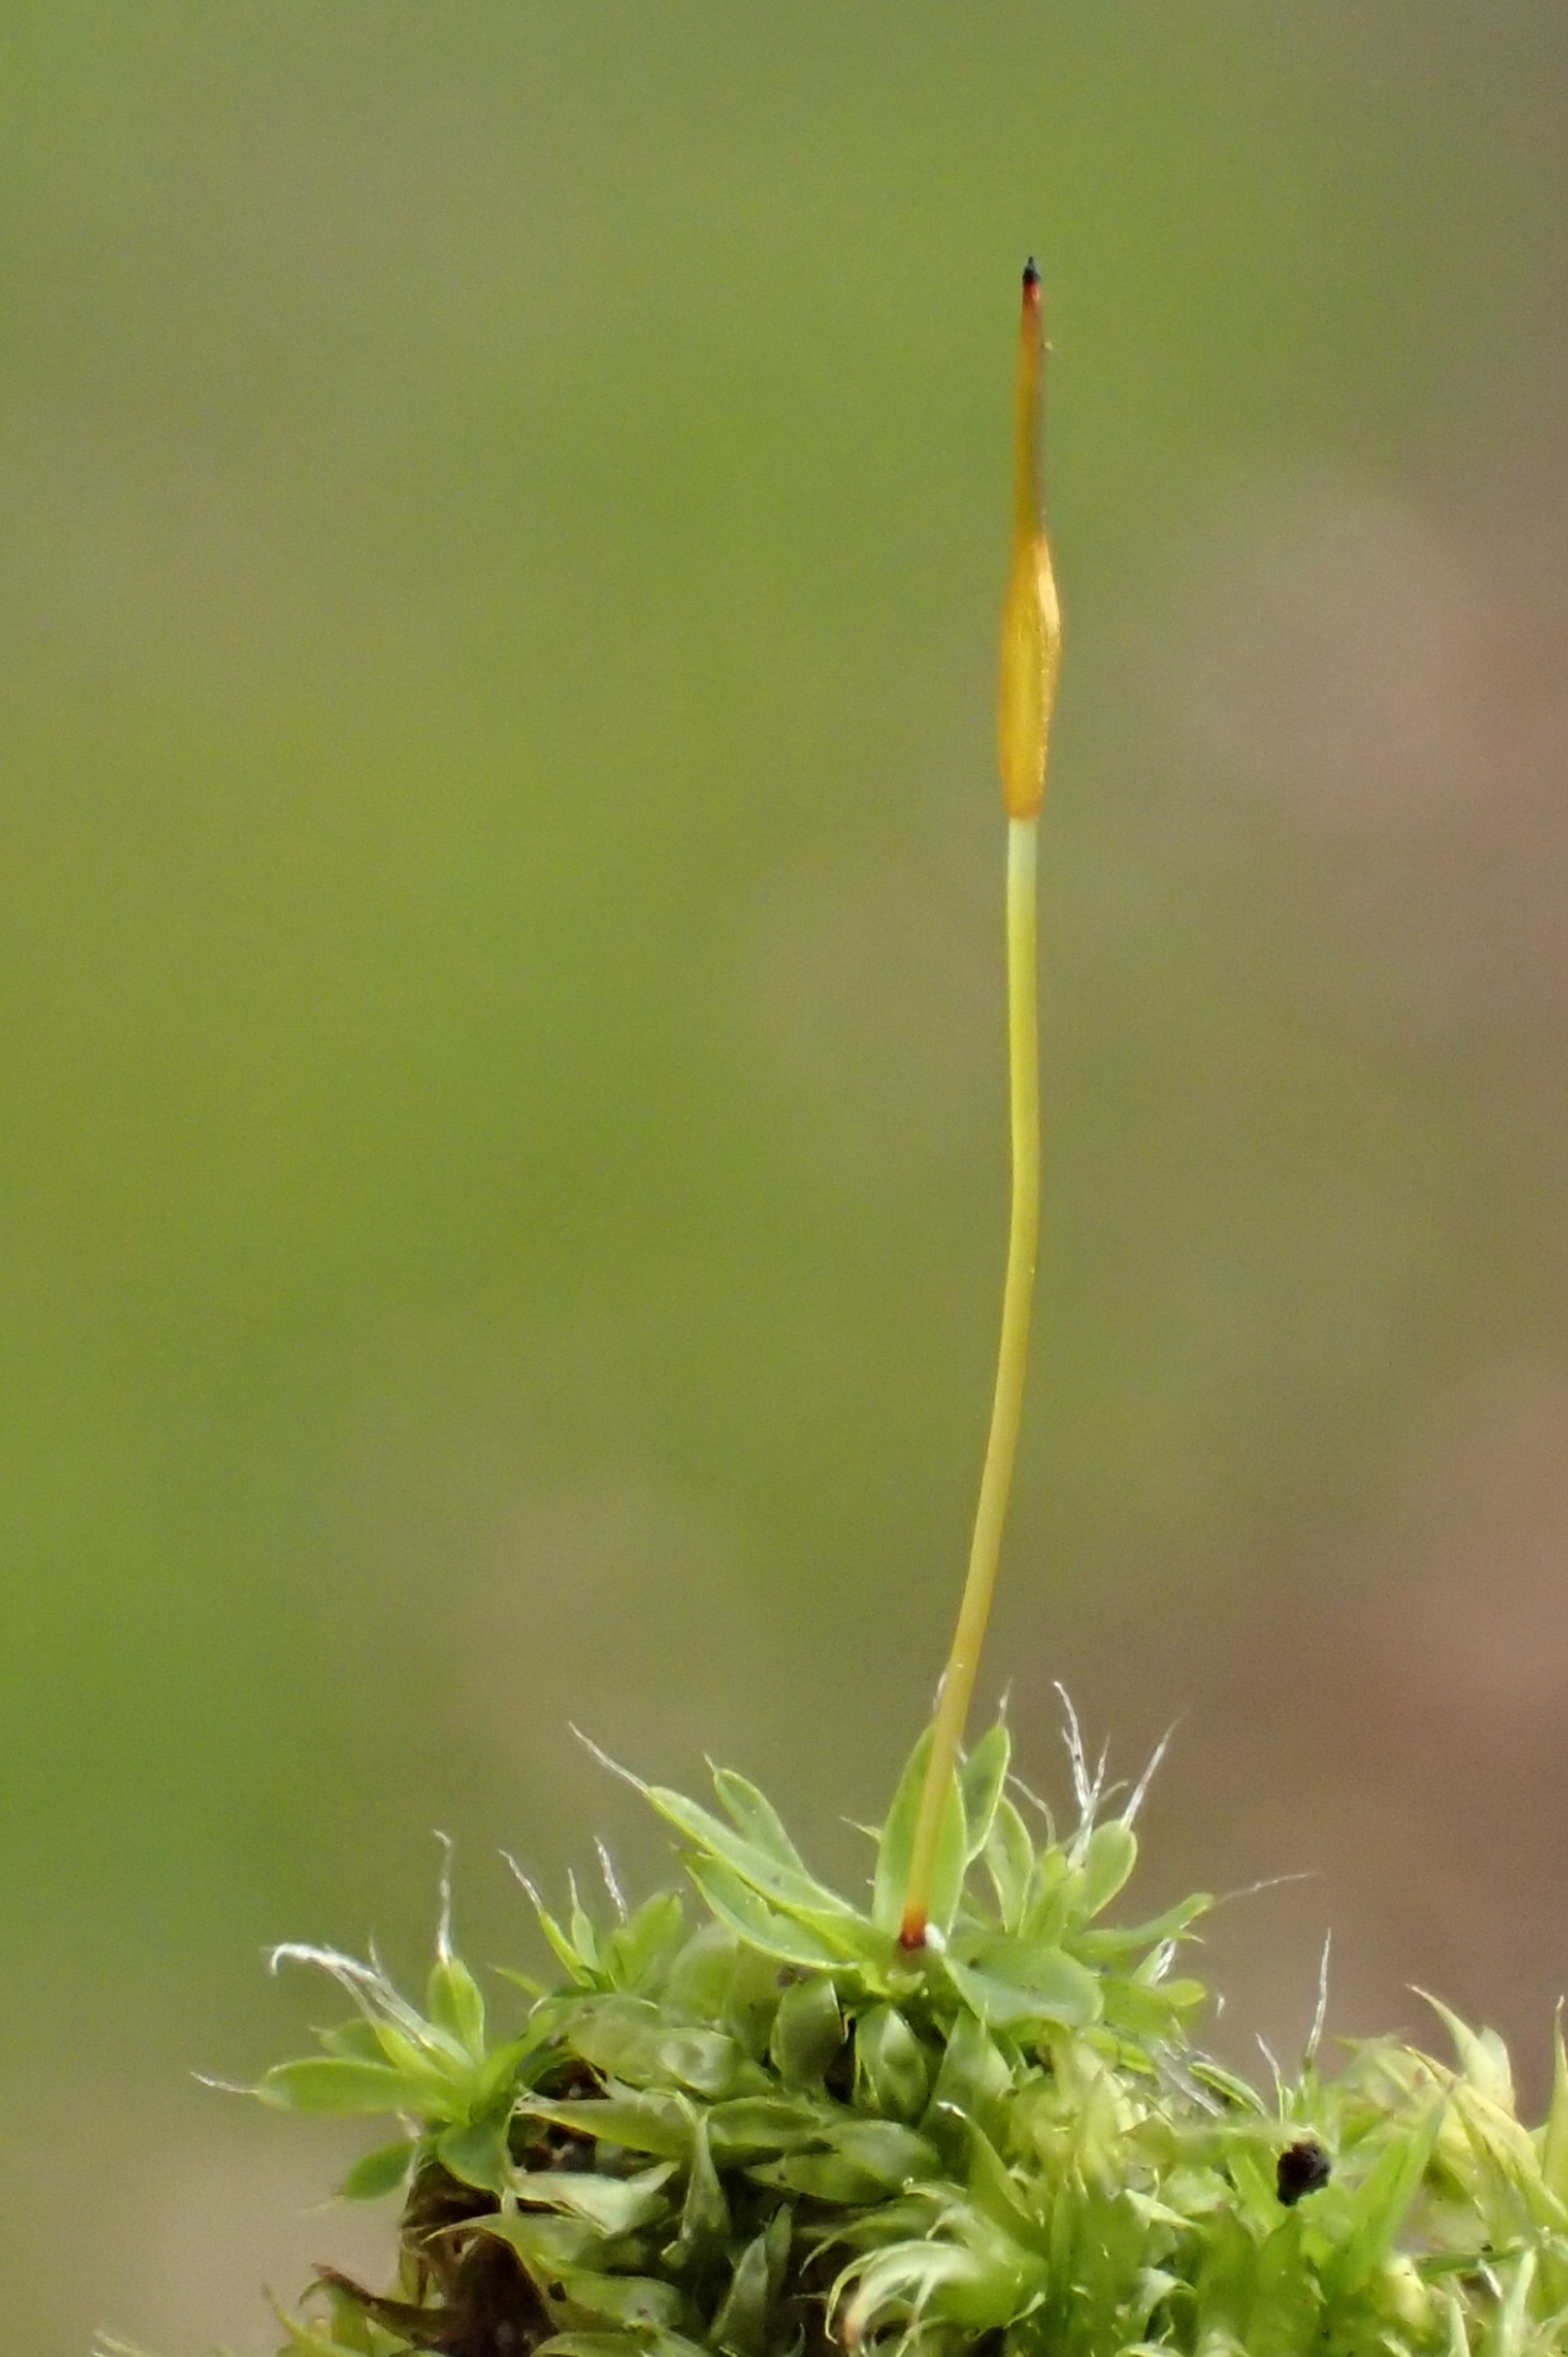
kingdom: Plantae
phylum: Bryophyta
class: Bryopsida
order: Pottiales
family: Pottiaceae
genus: Tortula
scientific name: Tortula muralis
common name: Mur-snotand
